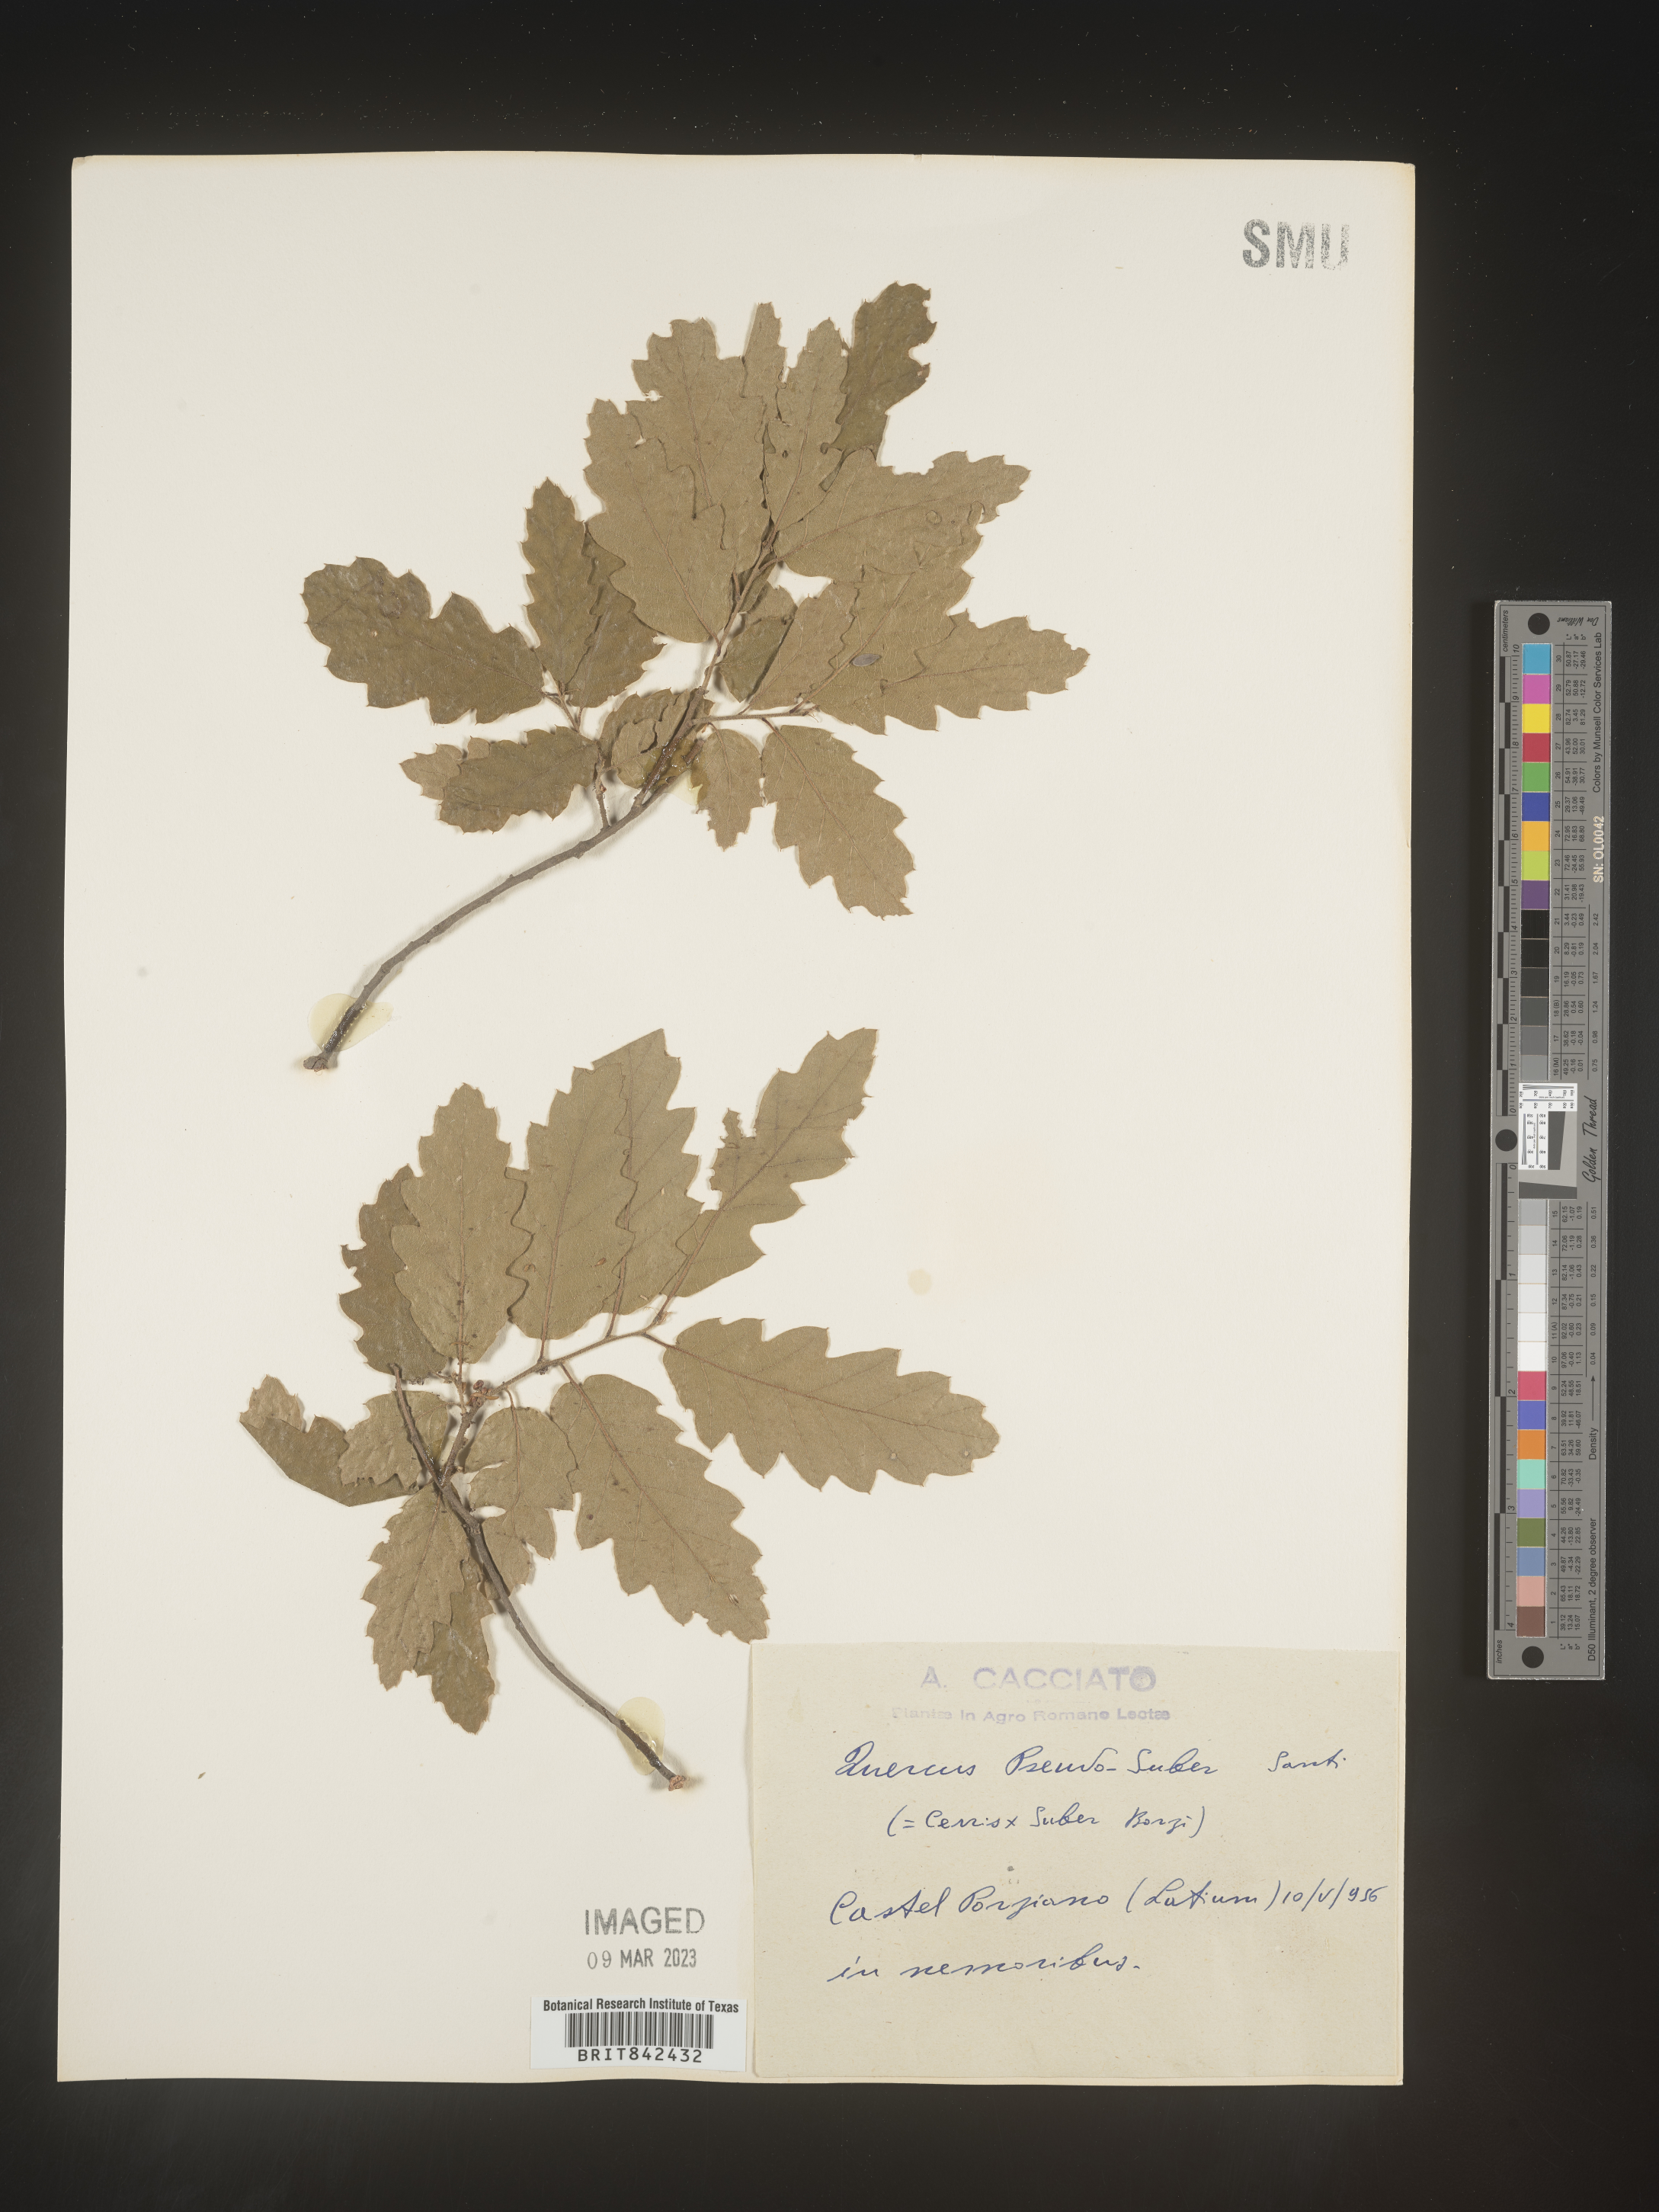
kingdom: Plantae
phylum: Tracheophyta
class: Magnoliopsida
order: Fagales
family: Fagaceae
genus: Quercus
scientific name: Quercus
